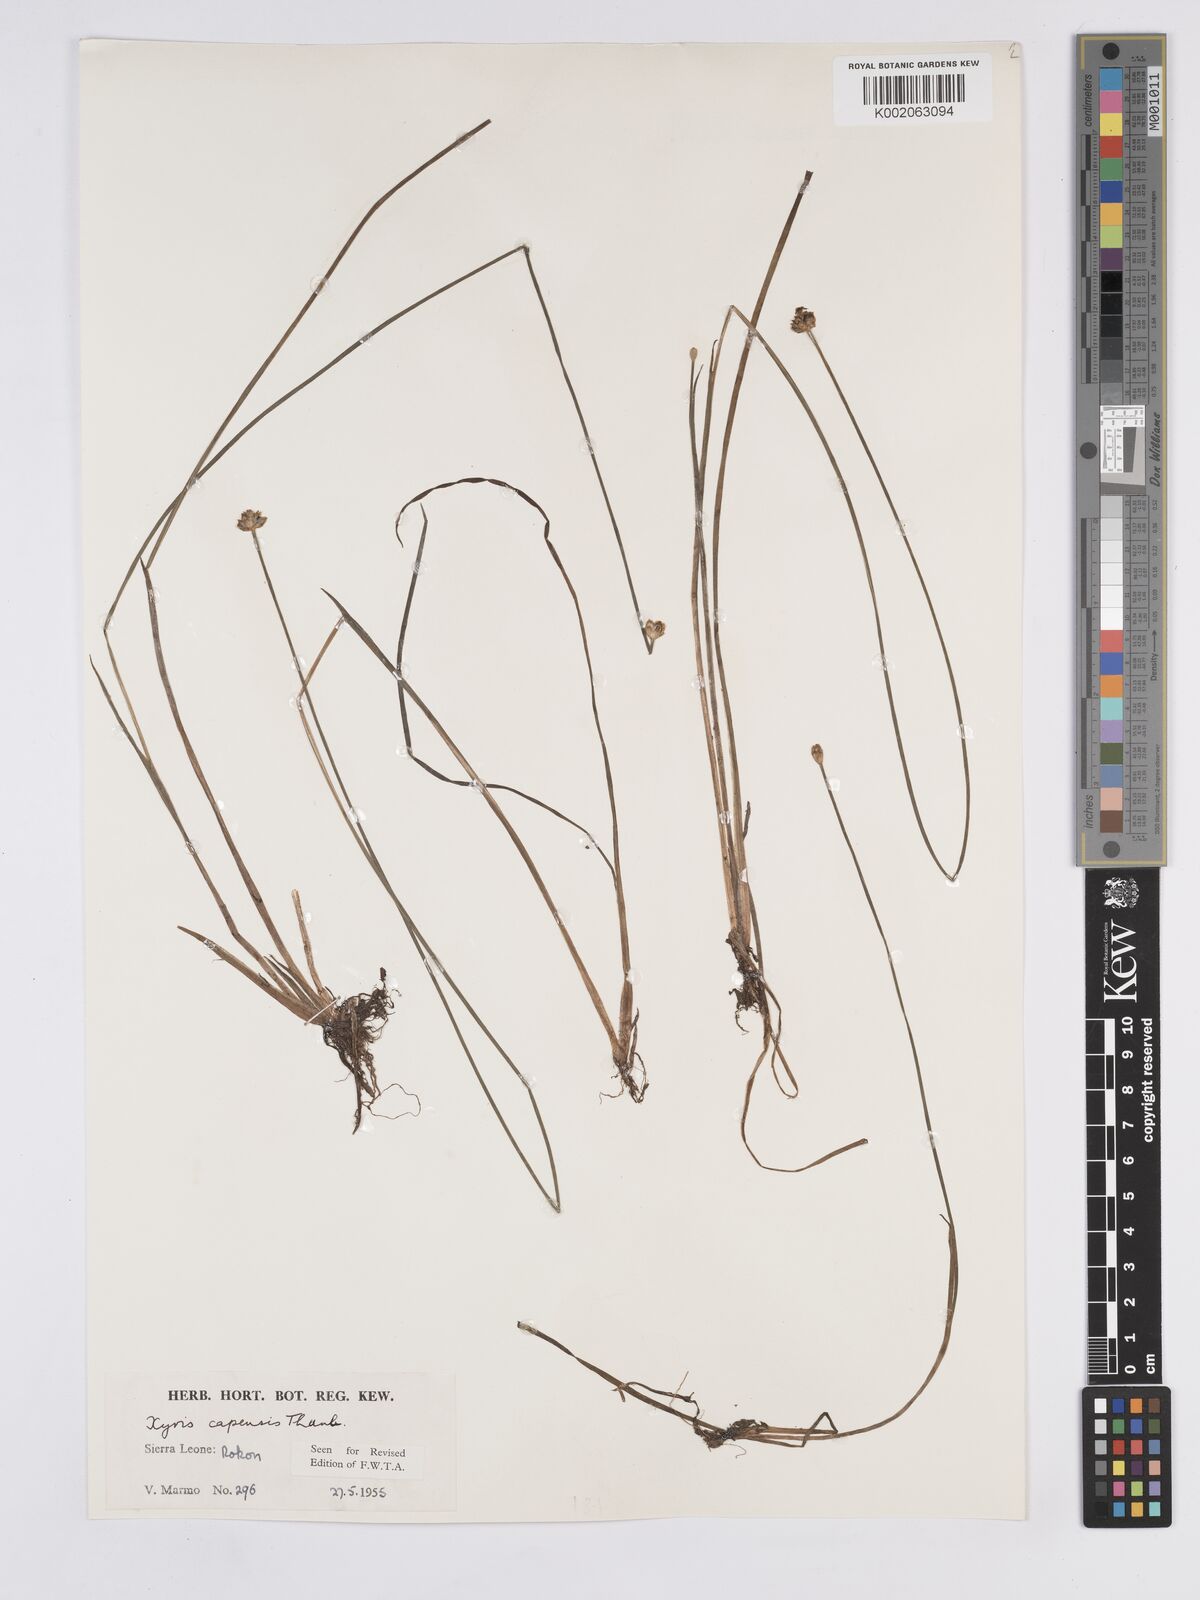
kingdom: Plantae
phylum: Tracheophyta
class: Liliopsida
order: Poales
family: Xyridaceae
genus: Xyris
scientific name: Xyris capensis
